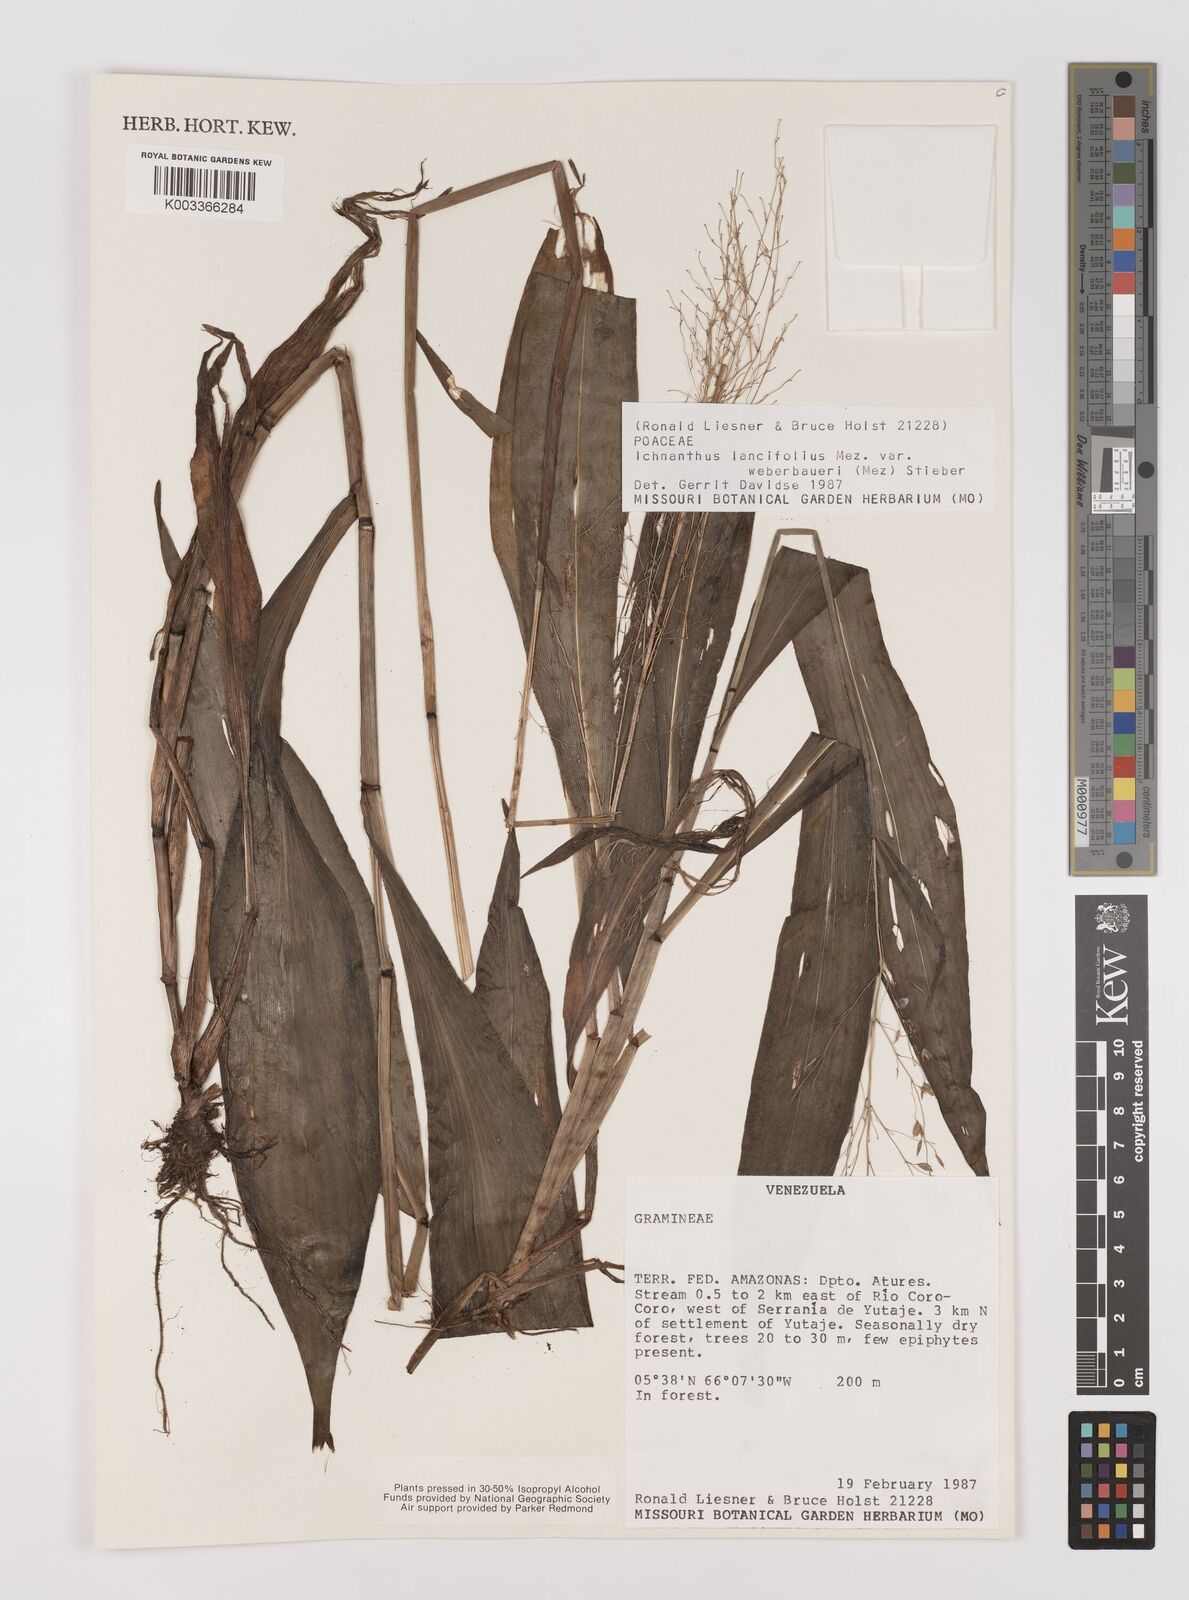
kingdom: Plantae
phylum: Tracheophyta
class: Liliopsida
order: Poales
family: Poaceae
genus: Ichnanthus
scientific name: Ichnanthus lancifolius
